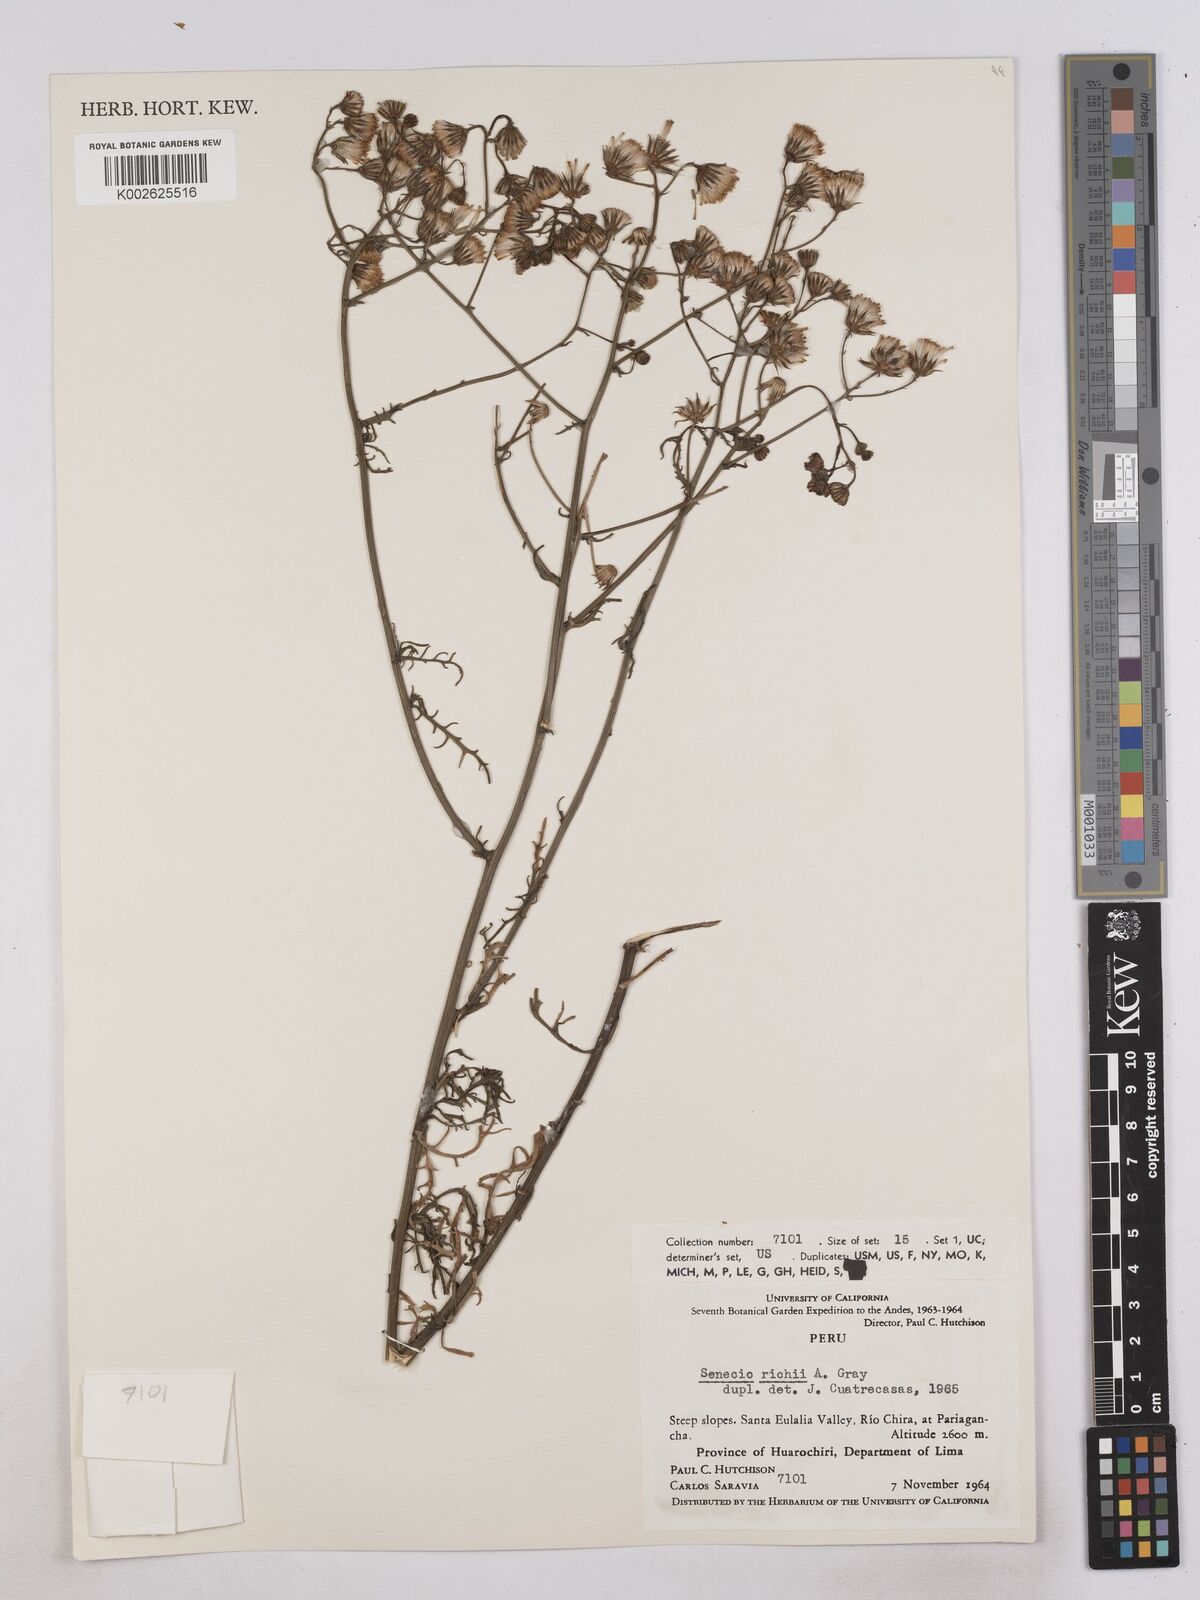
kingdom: Plantae
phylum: Tracheophyta
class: Magnoliopsida
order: Asterales
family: Asteraceae
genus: Senecio
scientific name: Senecio richii
